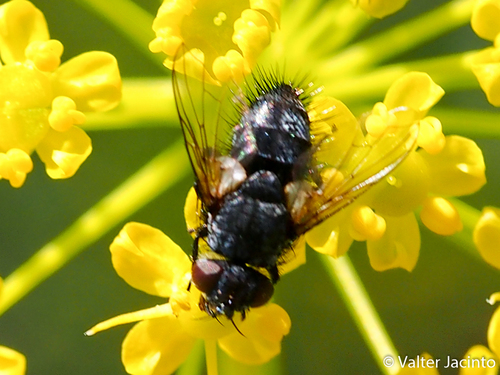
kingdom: Animalia
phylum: Arthropoda
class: Insecta
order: Diptera
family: Tachinidae
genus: Phryxe
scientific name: Phryxe
